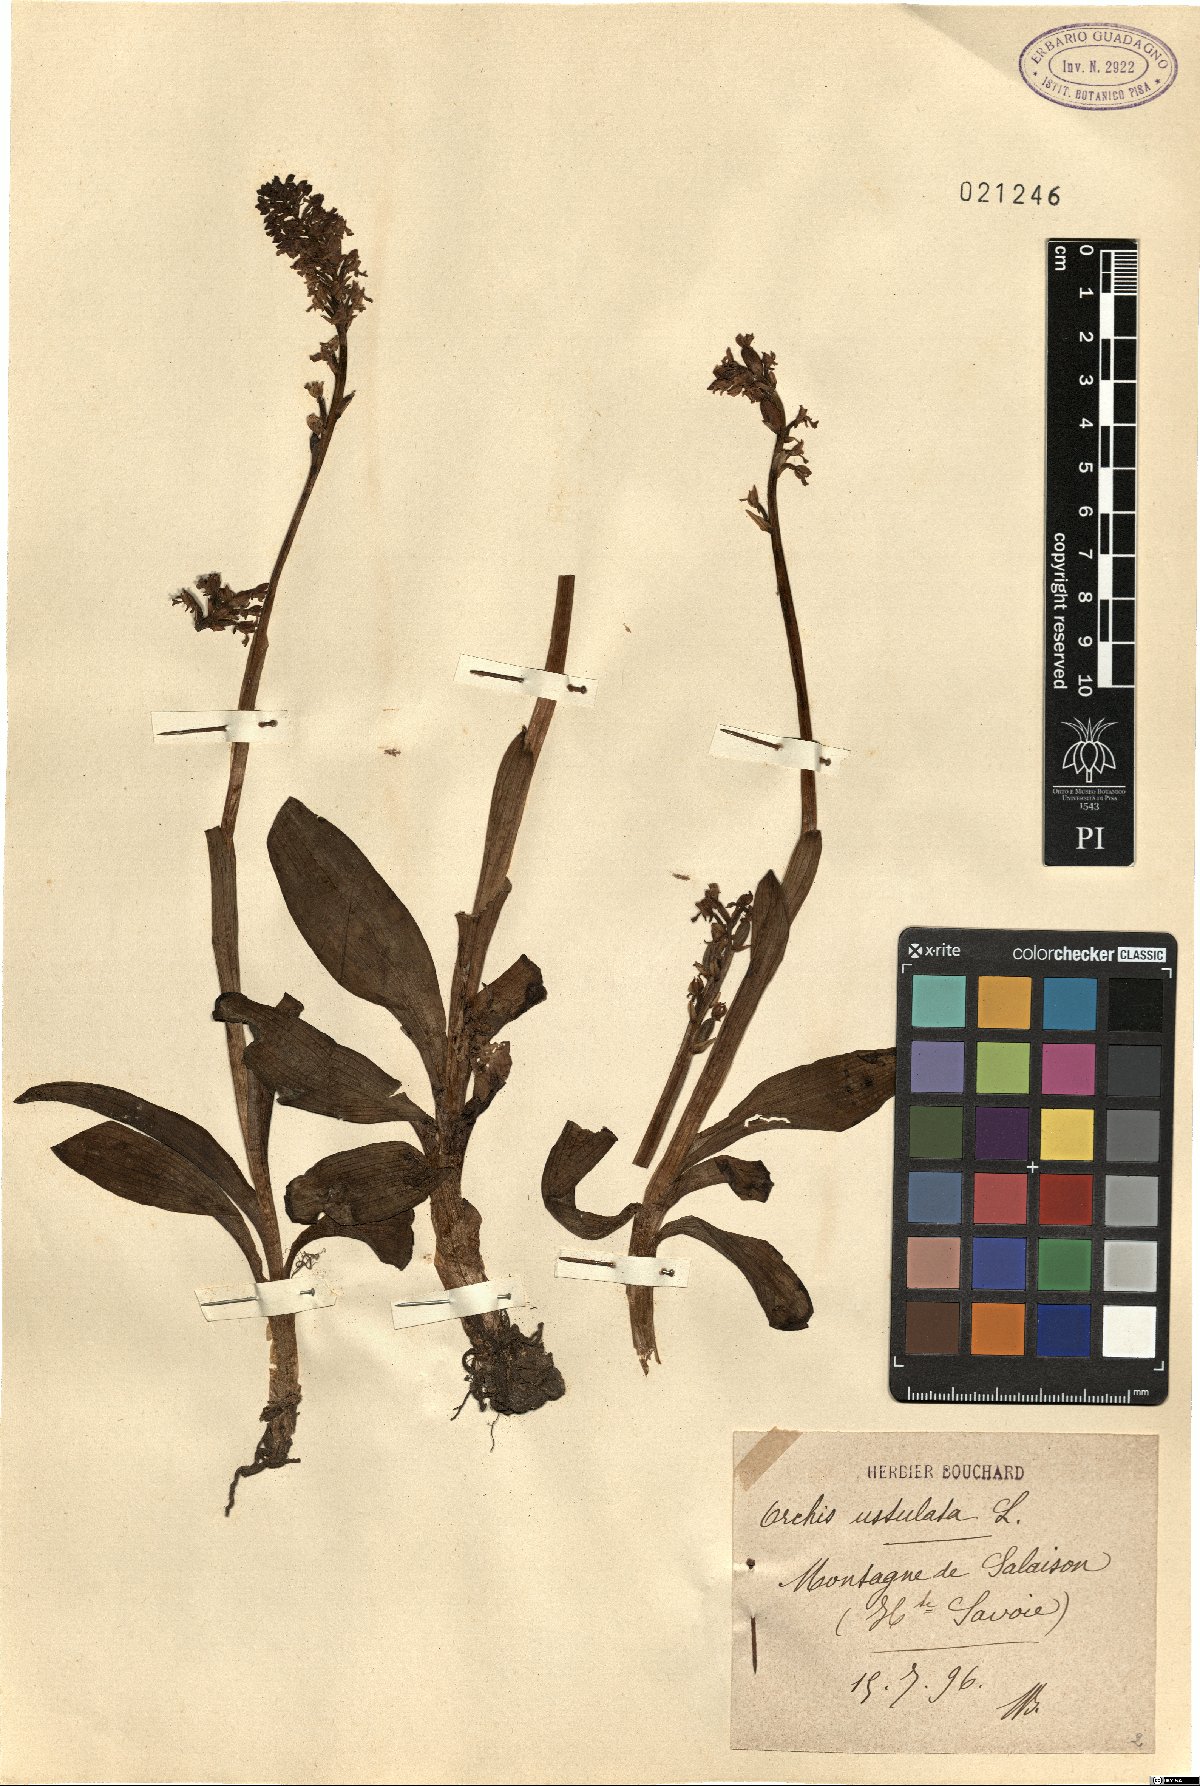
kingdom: Plantae
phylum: Tracheophyta
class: Liliopsida
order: Asparagales
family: Orchidaceae
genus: Neotinea
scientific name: Neotinea ustulata
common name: Burnt orchid
